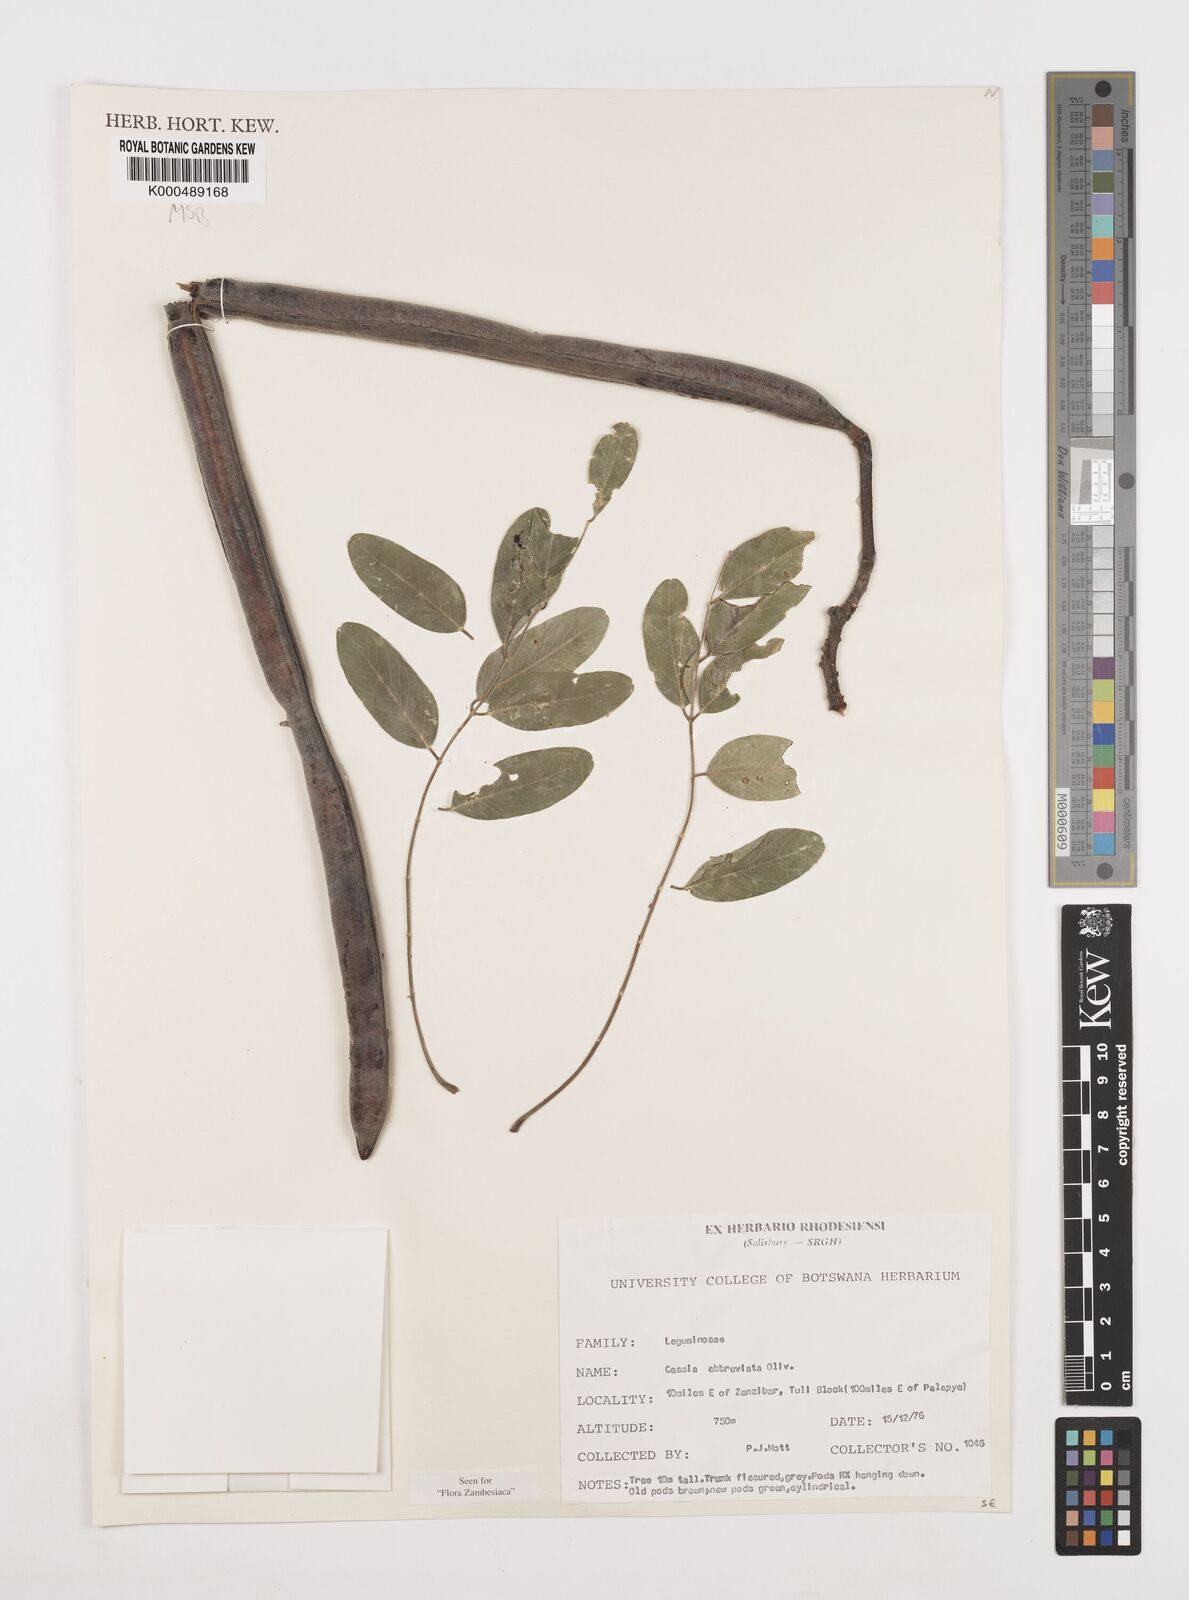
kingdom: Plantae
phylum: Tracheophyta
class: Magnoliopsida
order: Fabales
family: Fabaceae
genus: Cassia
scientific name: Cassia abbreviata
